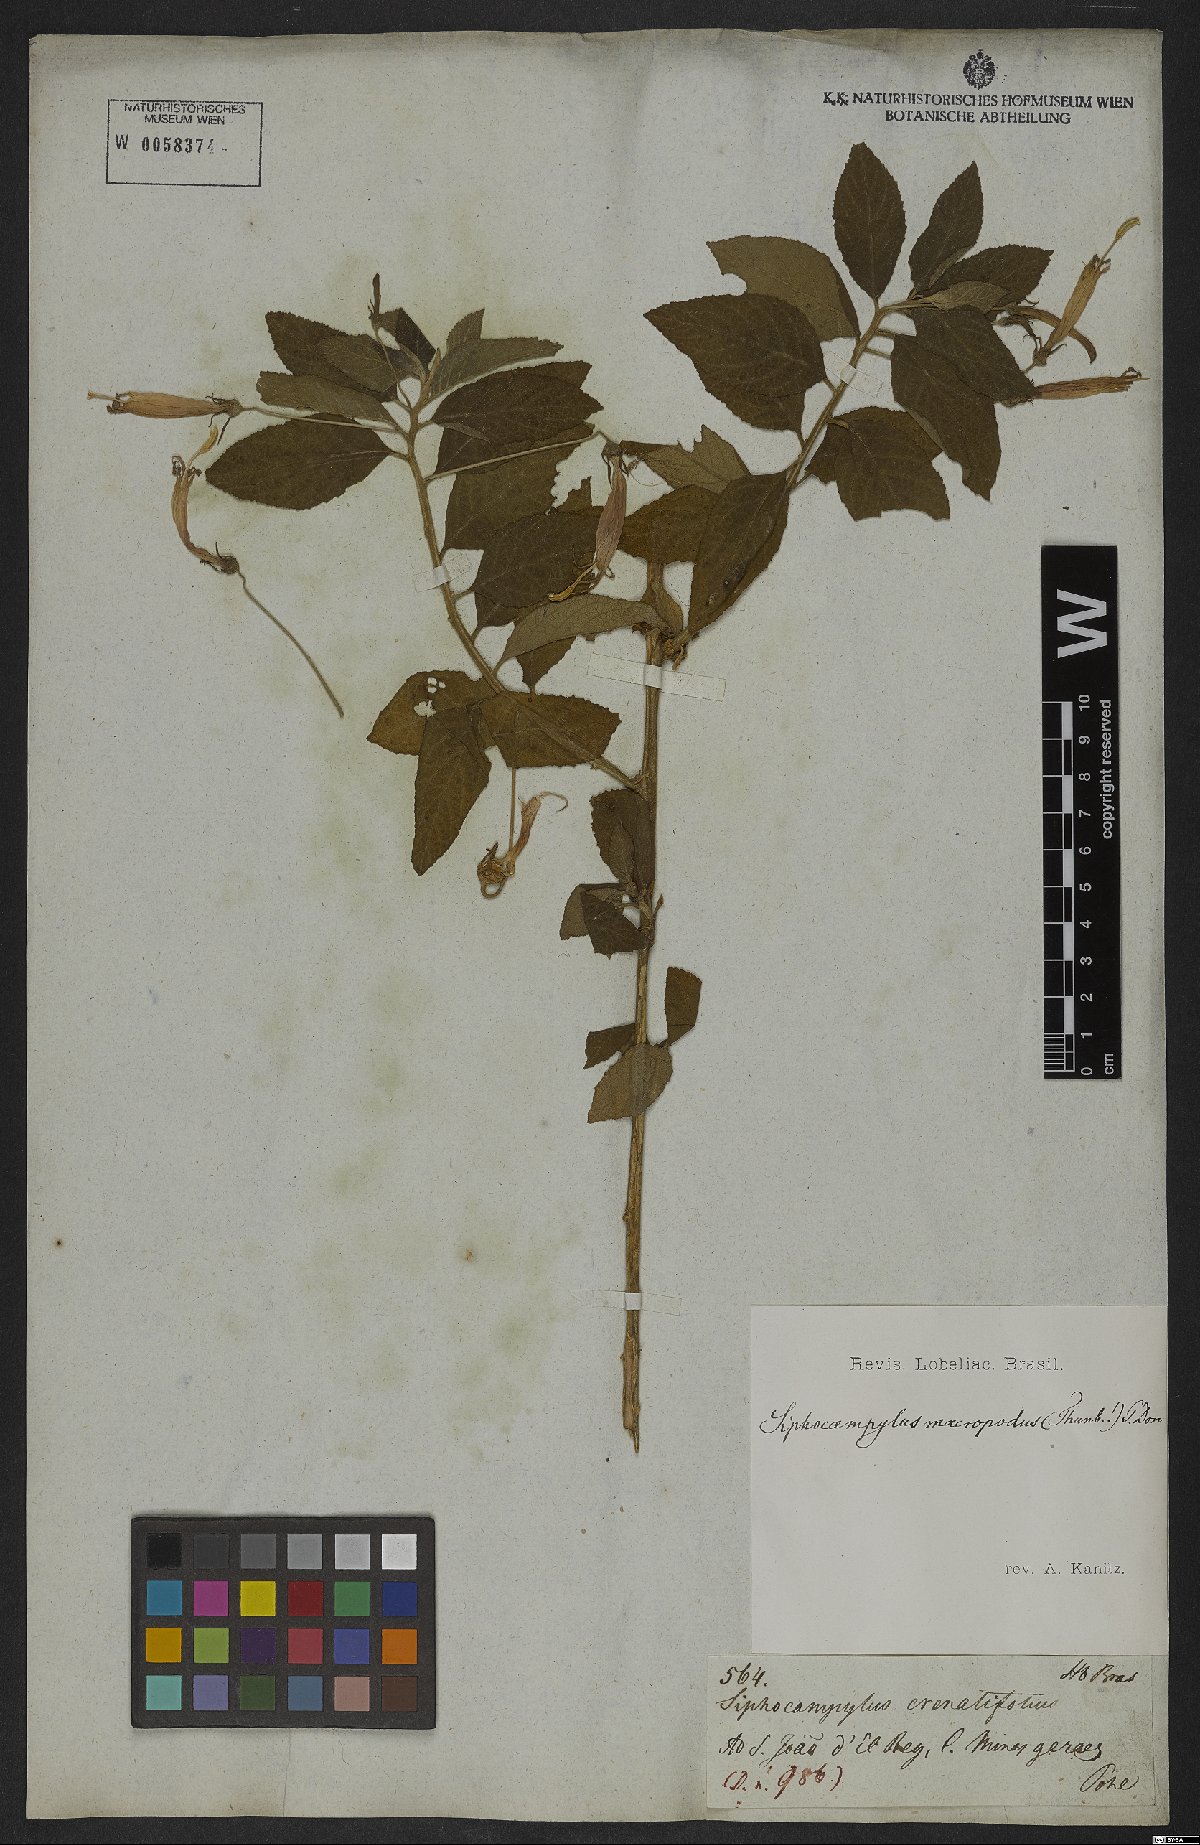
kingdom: Plantae
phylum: Tracheophyta
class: Magnoliopsida
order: Asterales
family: Campanulaceae
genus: Siphocampylus
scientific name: Siphocampylus macropodus
